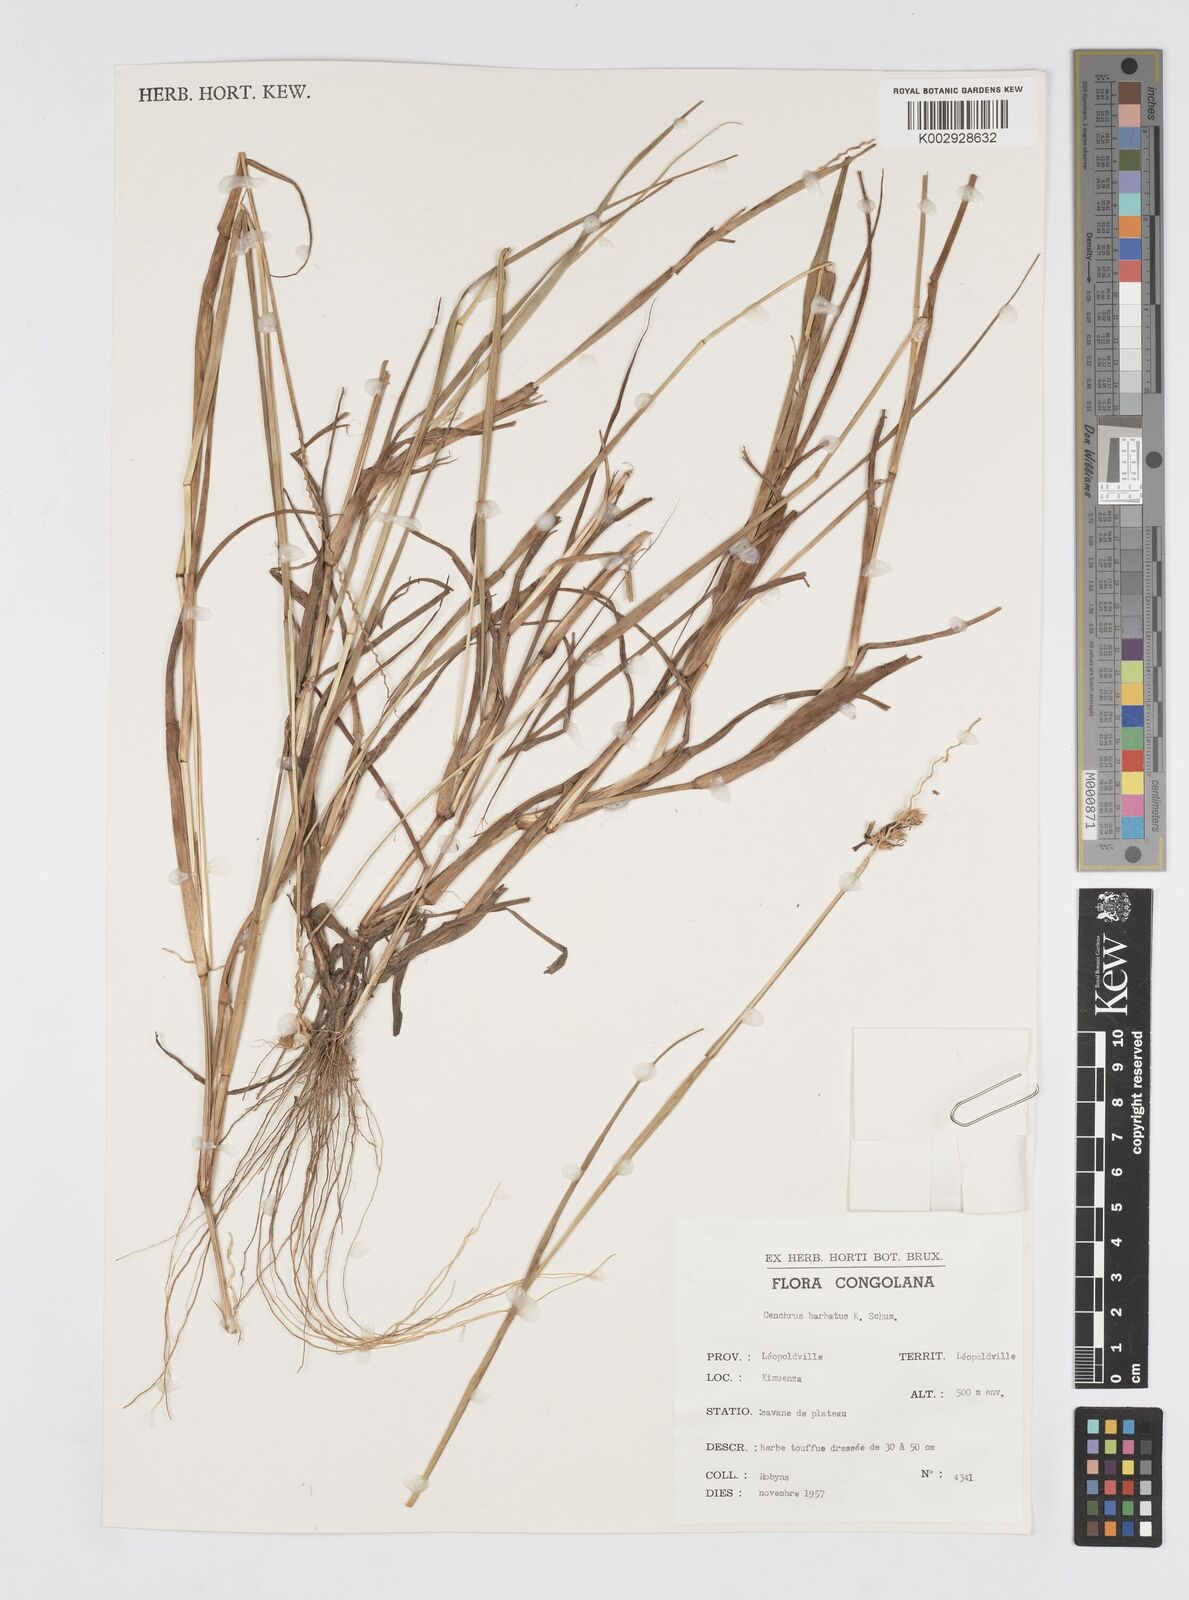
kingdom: Plantae
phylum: Tracheophyta
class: Liliopsida
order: Poales
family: Poaceae
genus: Cenchrus
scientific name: Cenchrus biflorus
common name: Indian sandbur
